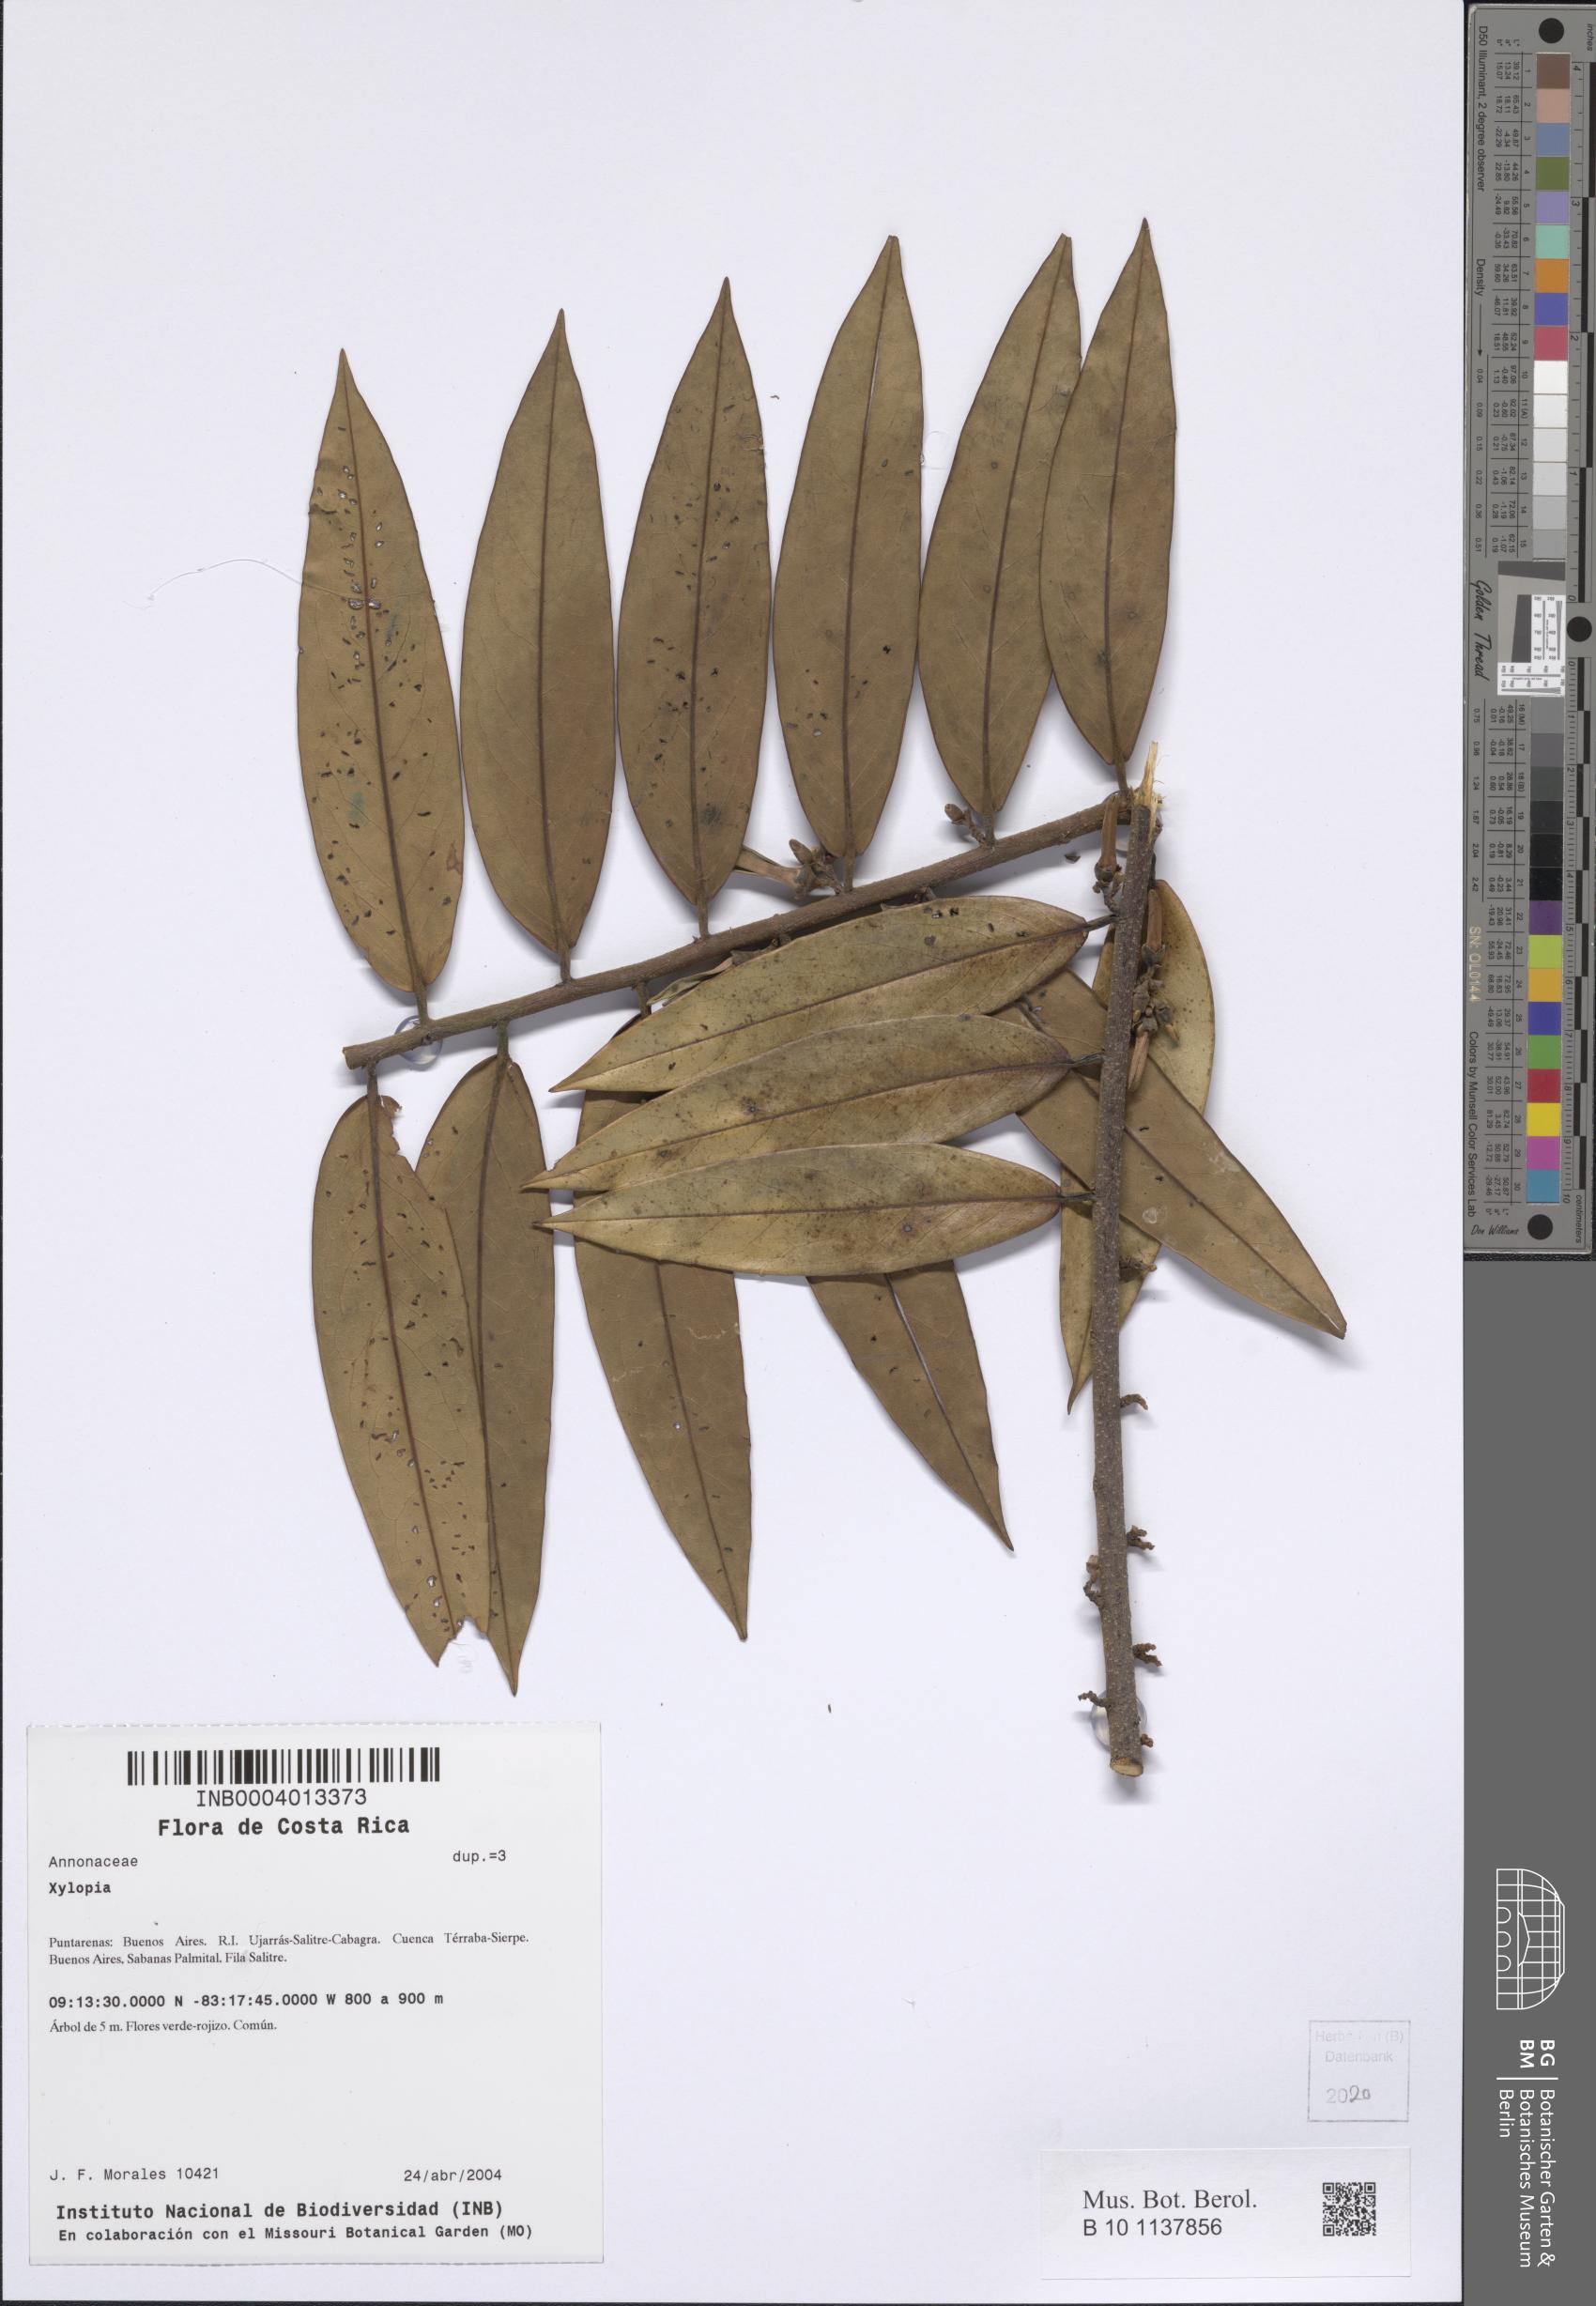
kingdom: Plantae
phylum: Tracheophyta
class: Magnoliopsida
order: Magnoliales
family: Annonaceae
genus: Xylopia
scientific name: Xylopia
